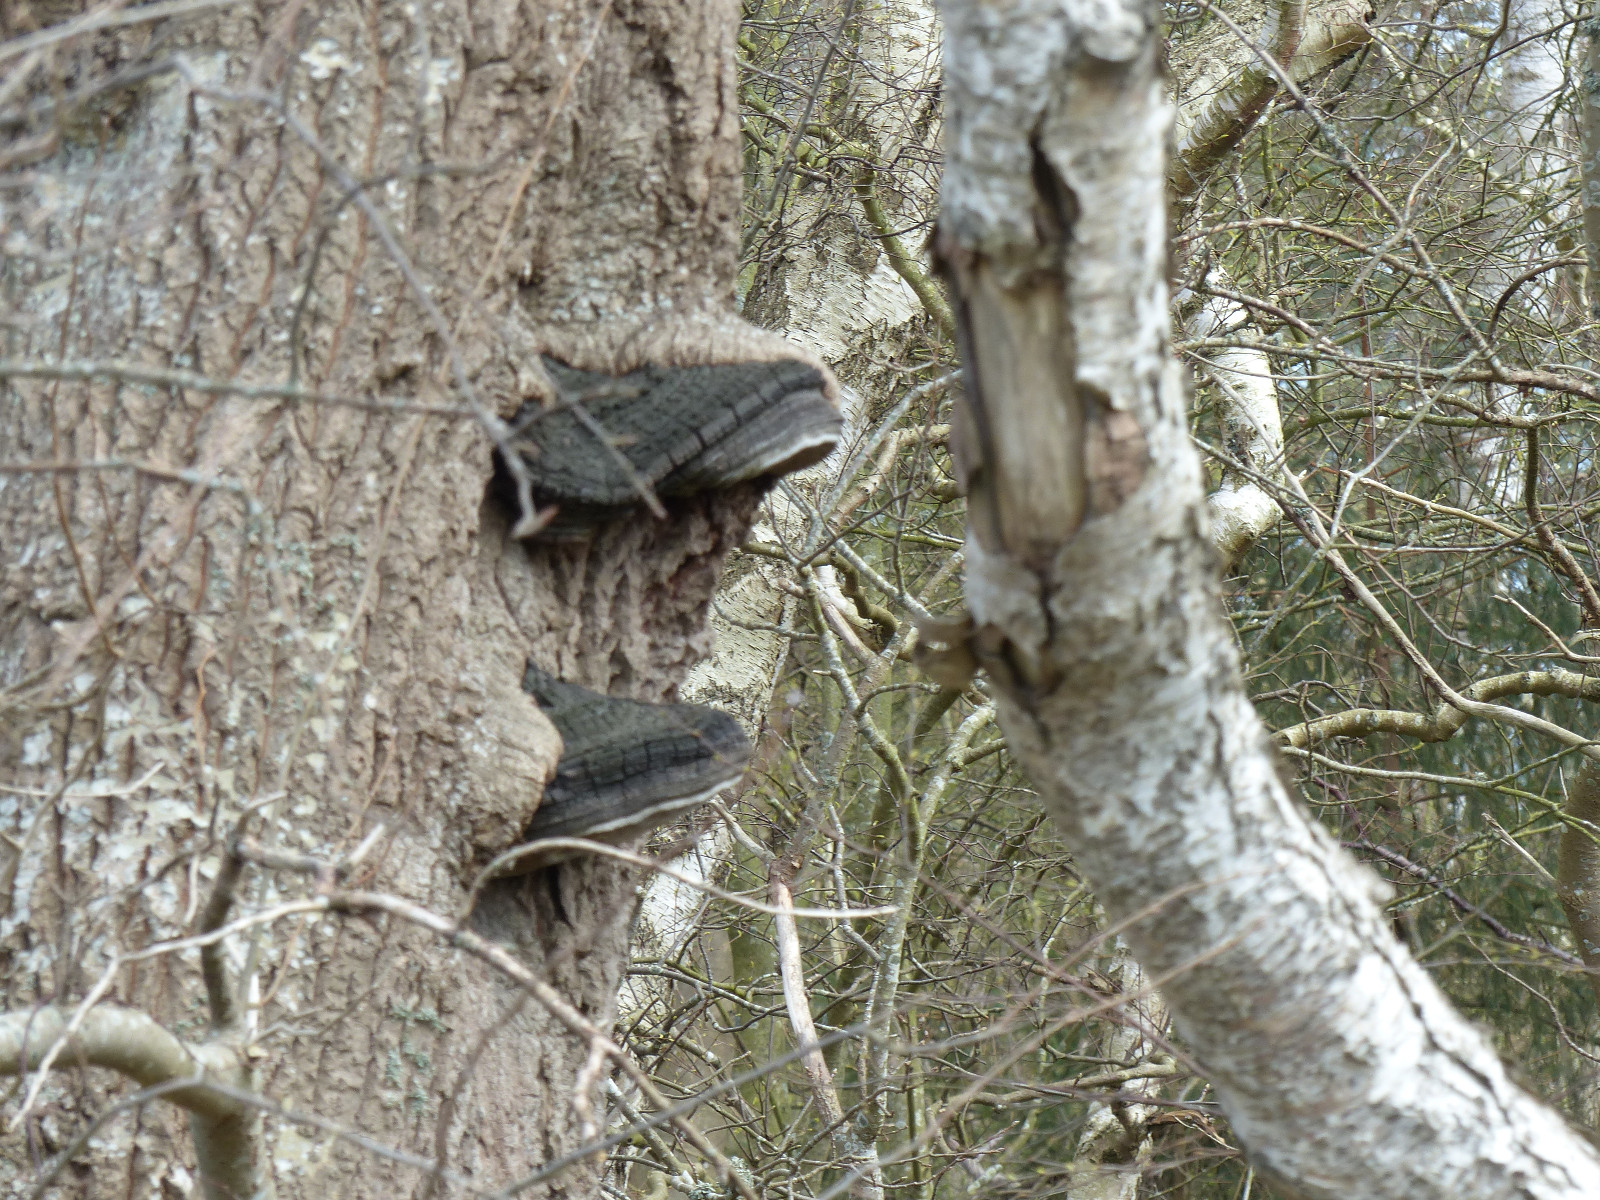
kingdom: Fungi
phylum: Basidiomycota
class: Agaricomycetes
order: Hymenochaetales
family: Hymenochaetaceae
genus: Phellinus
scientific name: Phellinus populicola
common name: poppel-ildporesvamp
